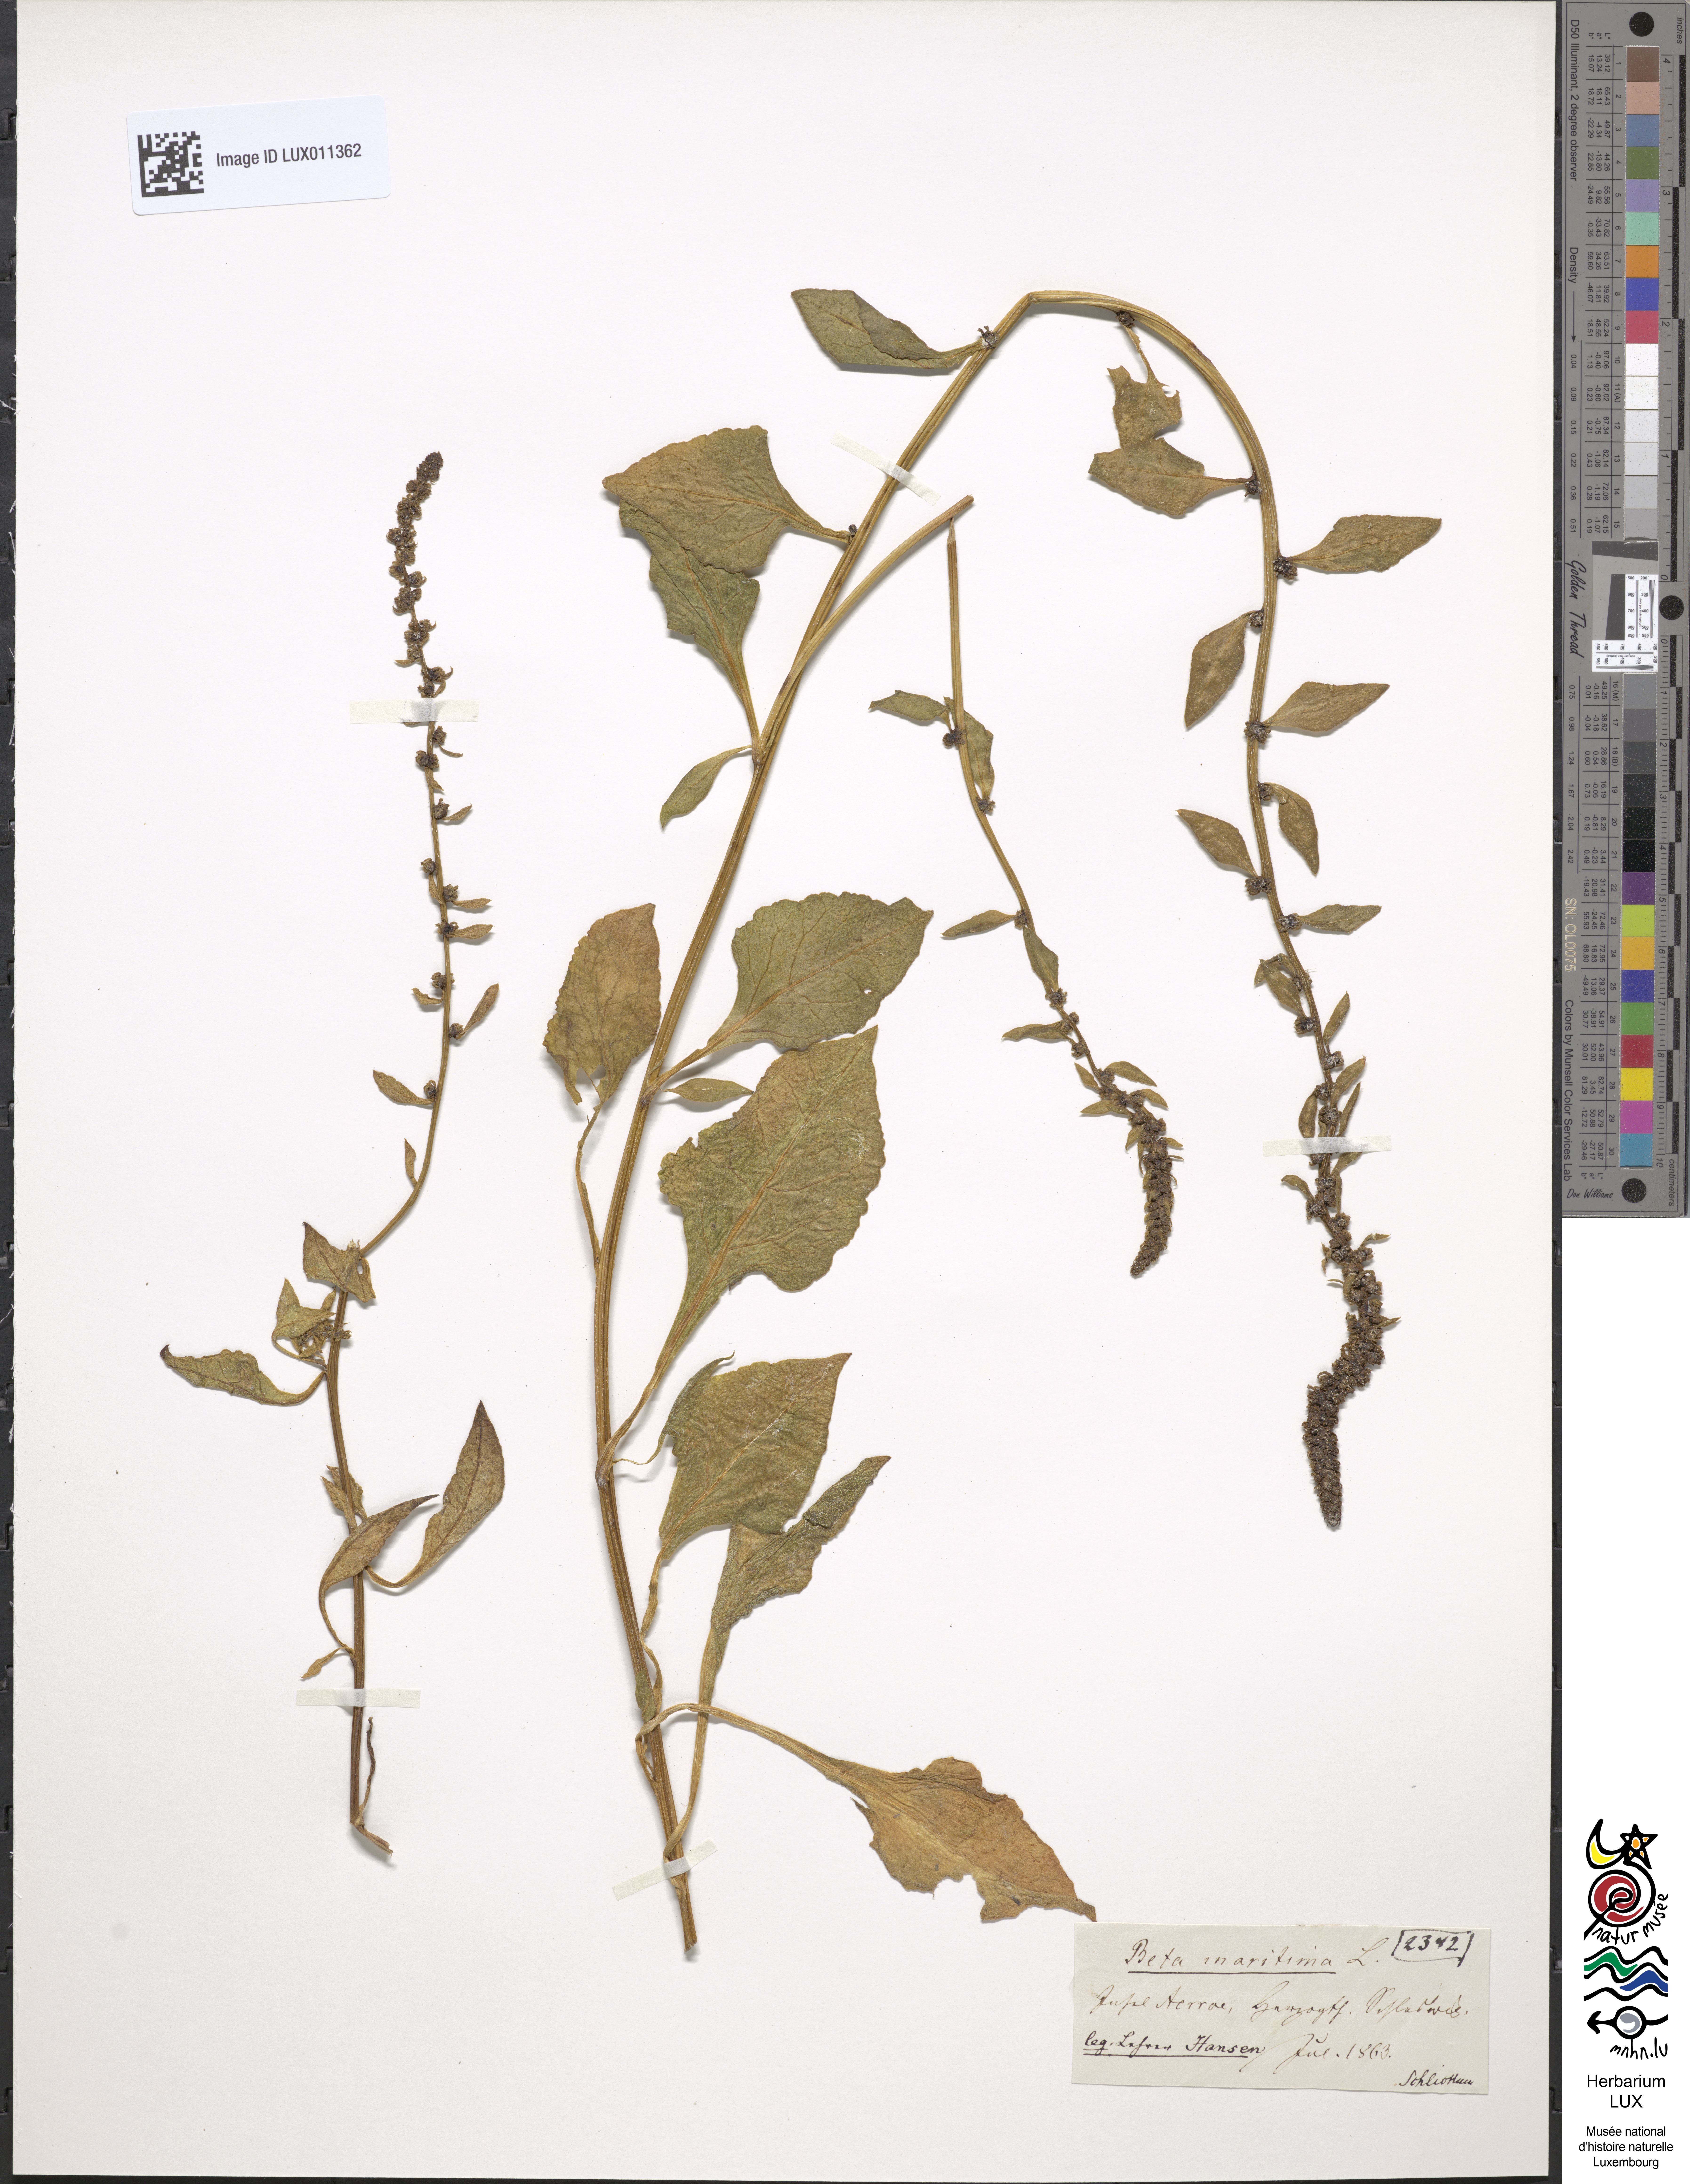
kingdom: Plantae
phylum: Tracheophyta
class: Magnoliopsida
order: Caryophyllales
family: Amaranthaceae
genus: Beta
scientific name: Beta maritima
